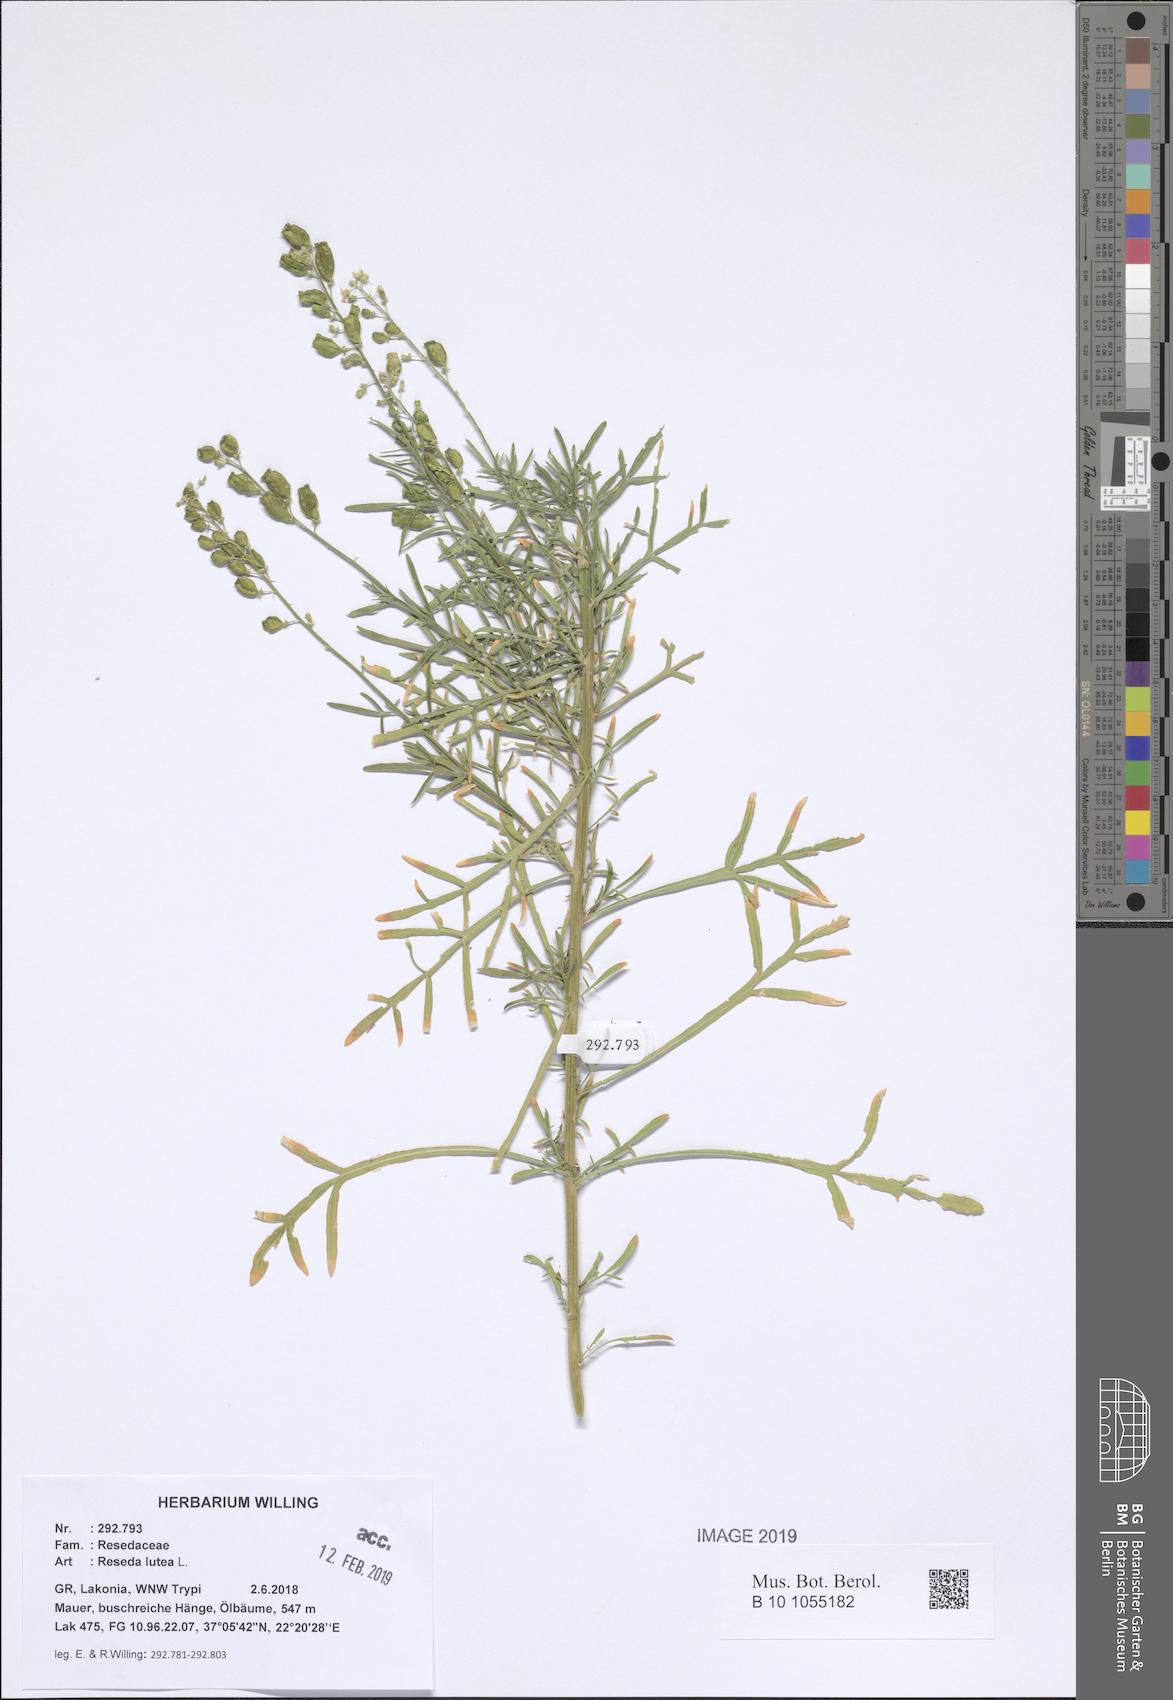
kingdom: Plantae
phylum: Tracheophyta
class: Magnoliopsida
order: Brassicales
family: Resedaceae
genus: Reseda
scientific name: Reseda lutea
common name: Wild mignonette
